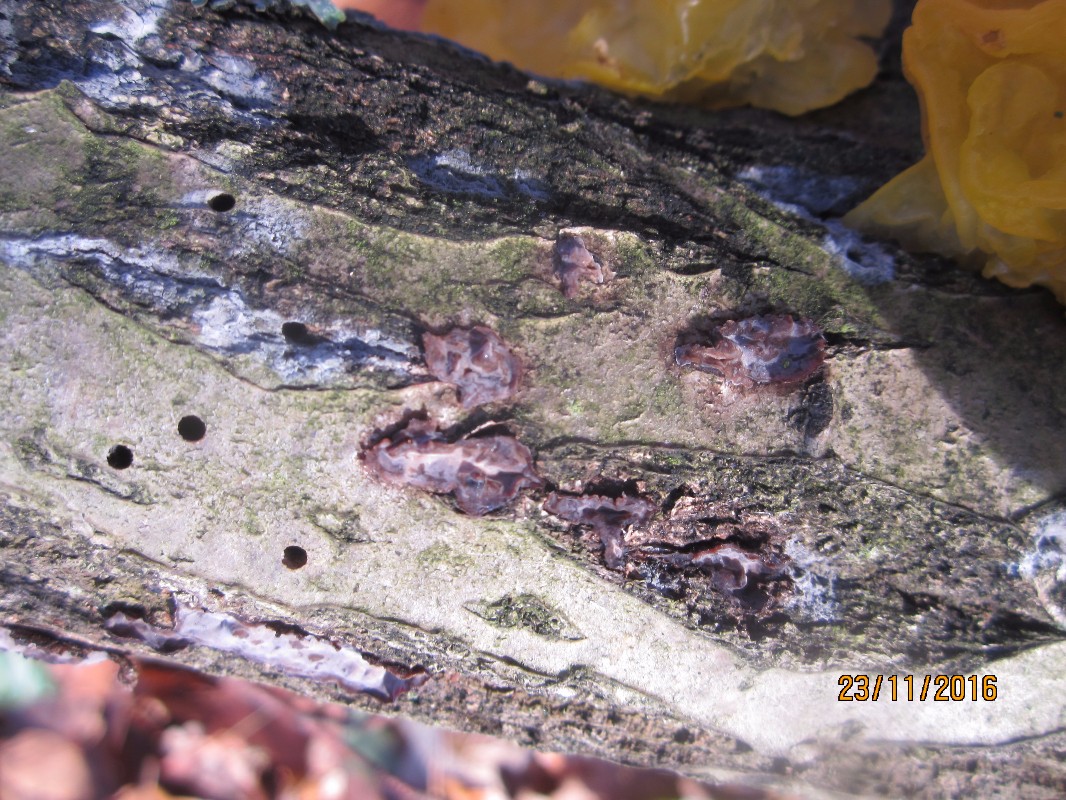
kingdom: Fungi
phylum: Basidiomycota
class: Agaricomycetes
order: Russulales
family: Peniophoraceae
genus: Peniophora
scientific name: Peniophora quercina
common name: ege-voksskind
